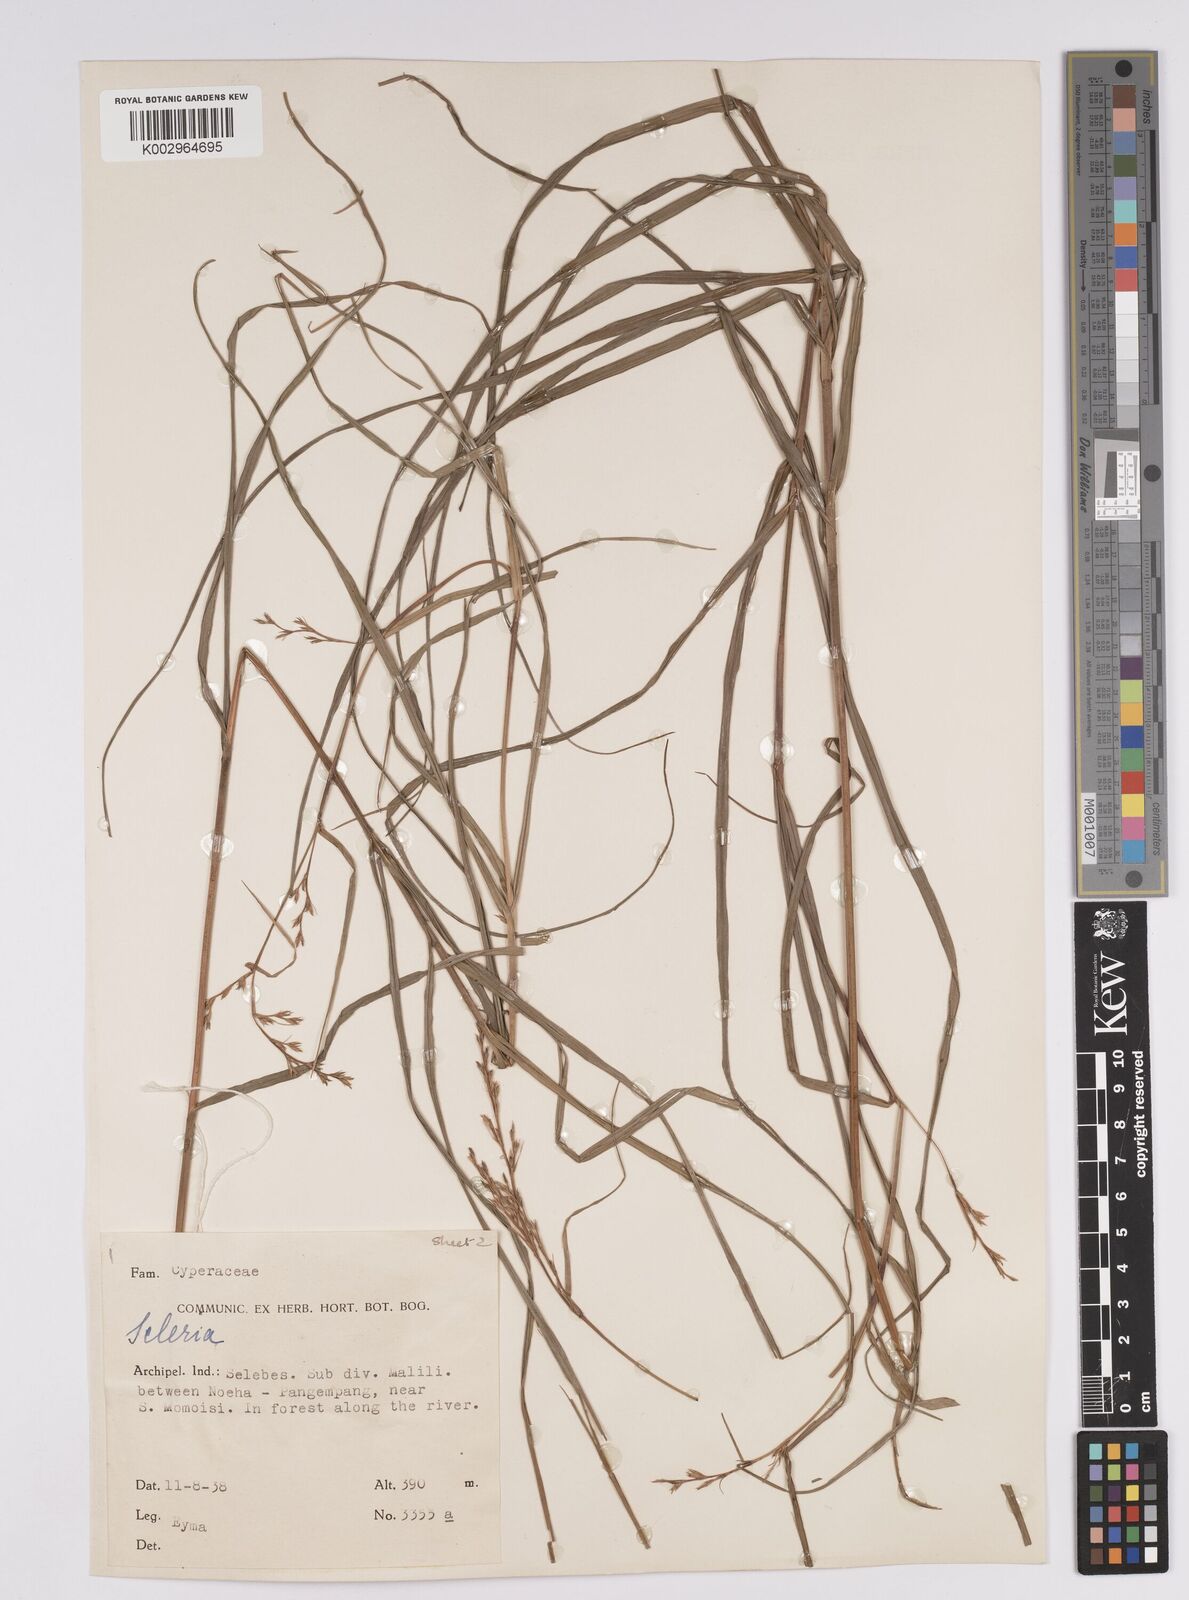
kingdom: Plantae
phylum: Tracheophyta
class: Liliopsida
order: Poales
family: Cyperaceae
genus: Scleria
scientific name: Scleria
